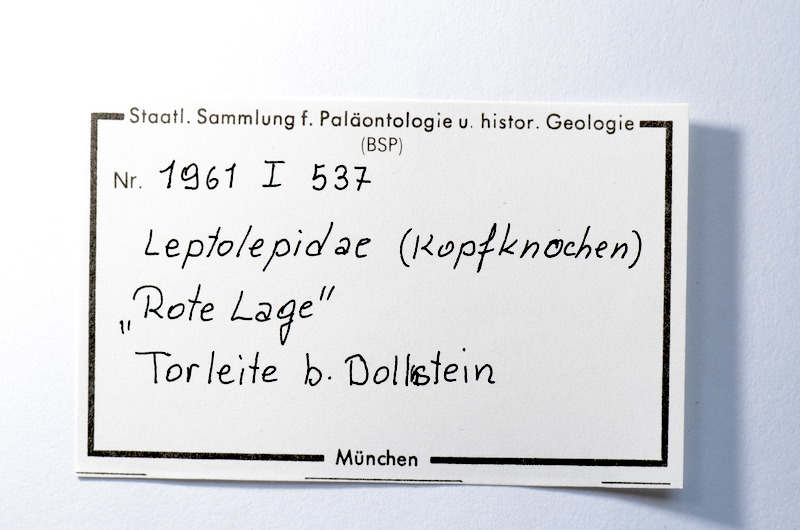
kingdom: Animalia
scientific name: Animalia
